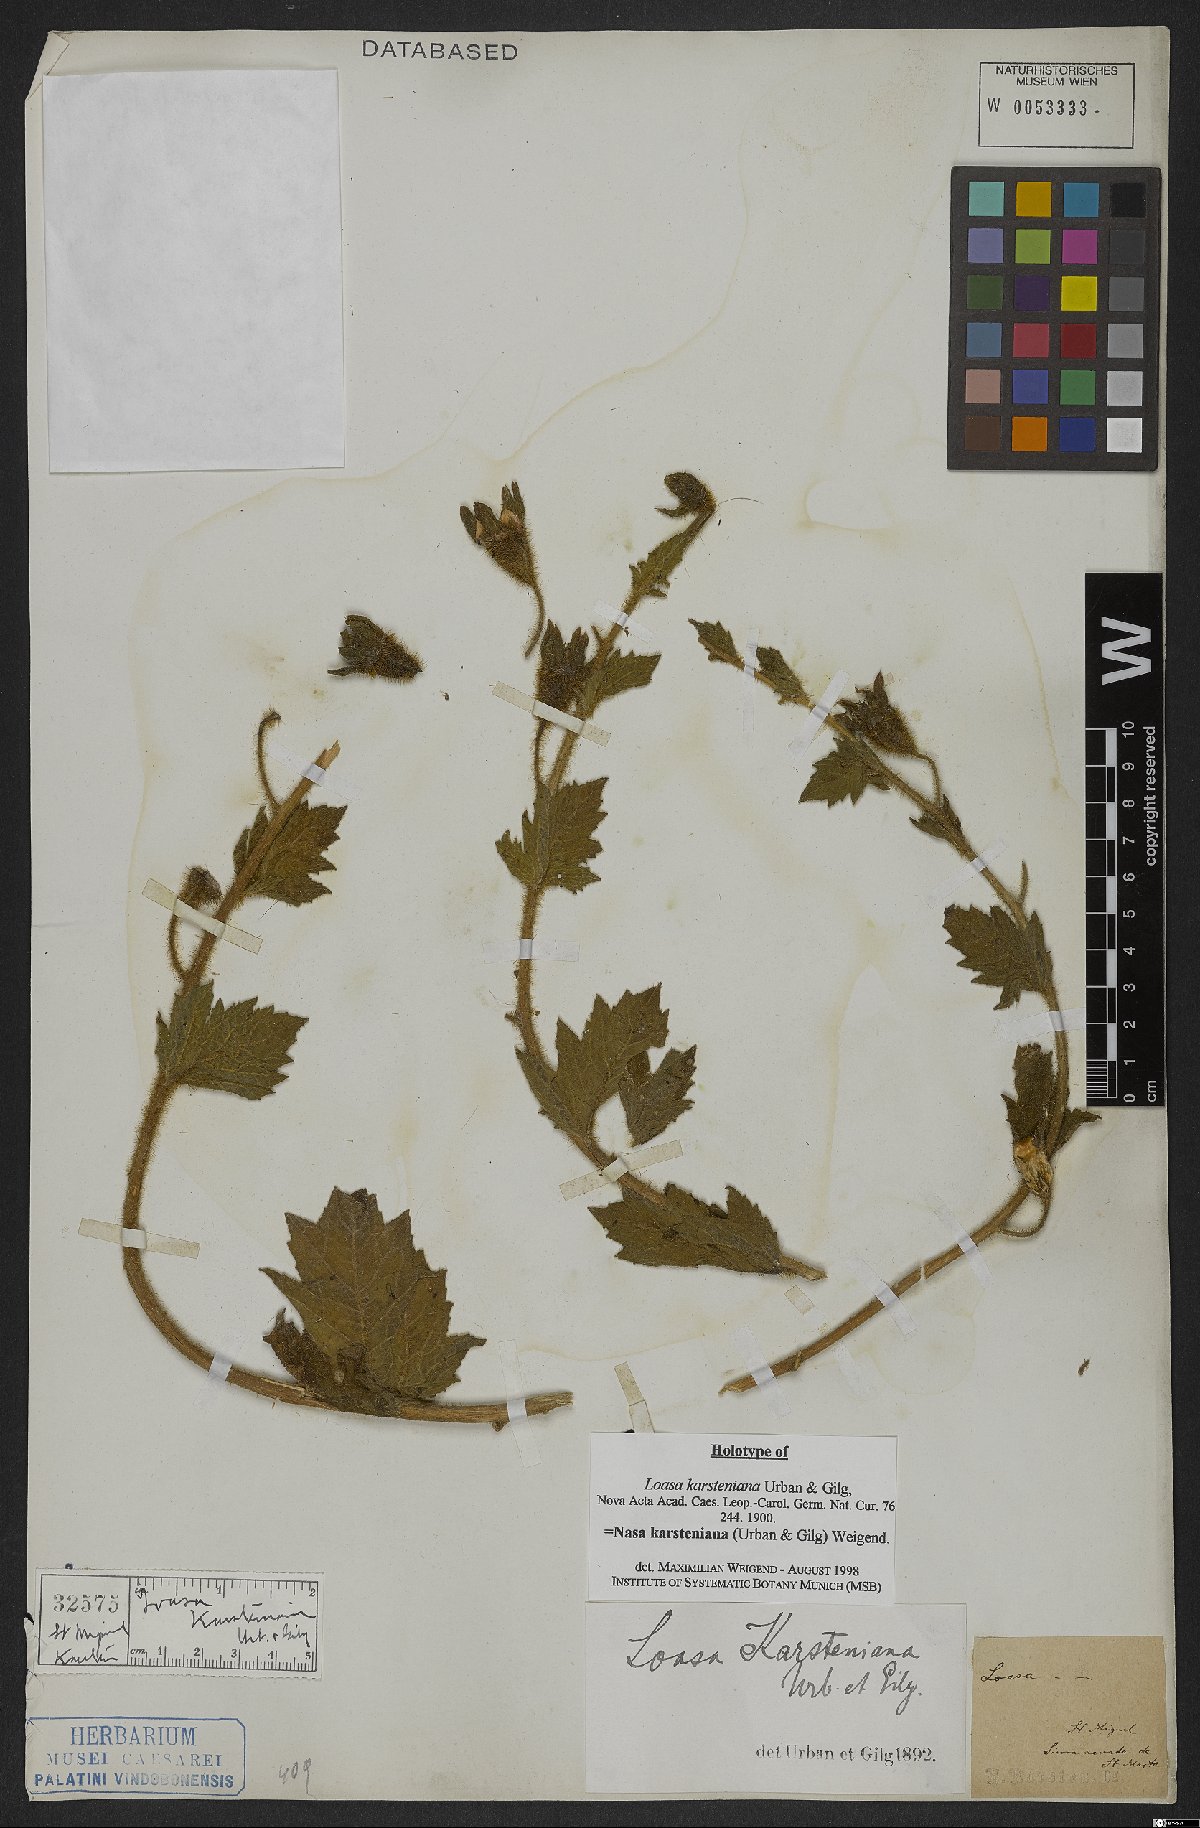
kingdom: Plantae
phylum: Tracheophyta
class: Magnoliopsida
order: Cornales
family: Loasaceae
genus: Nasa
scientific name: Nasa karsteniana
